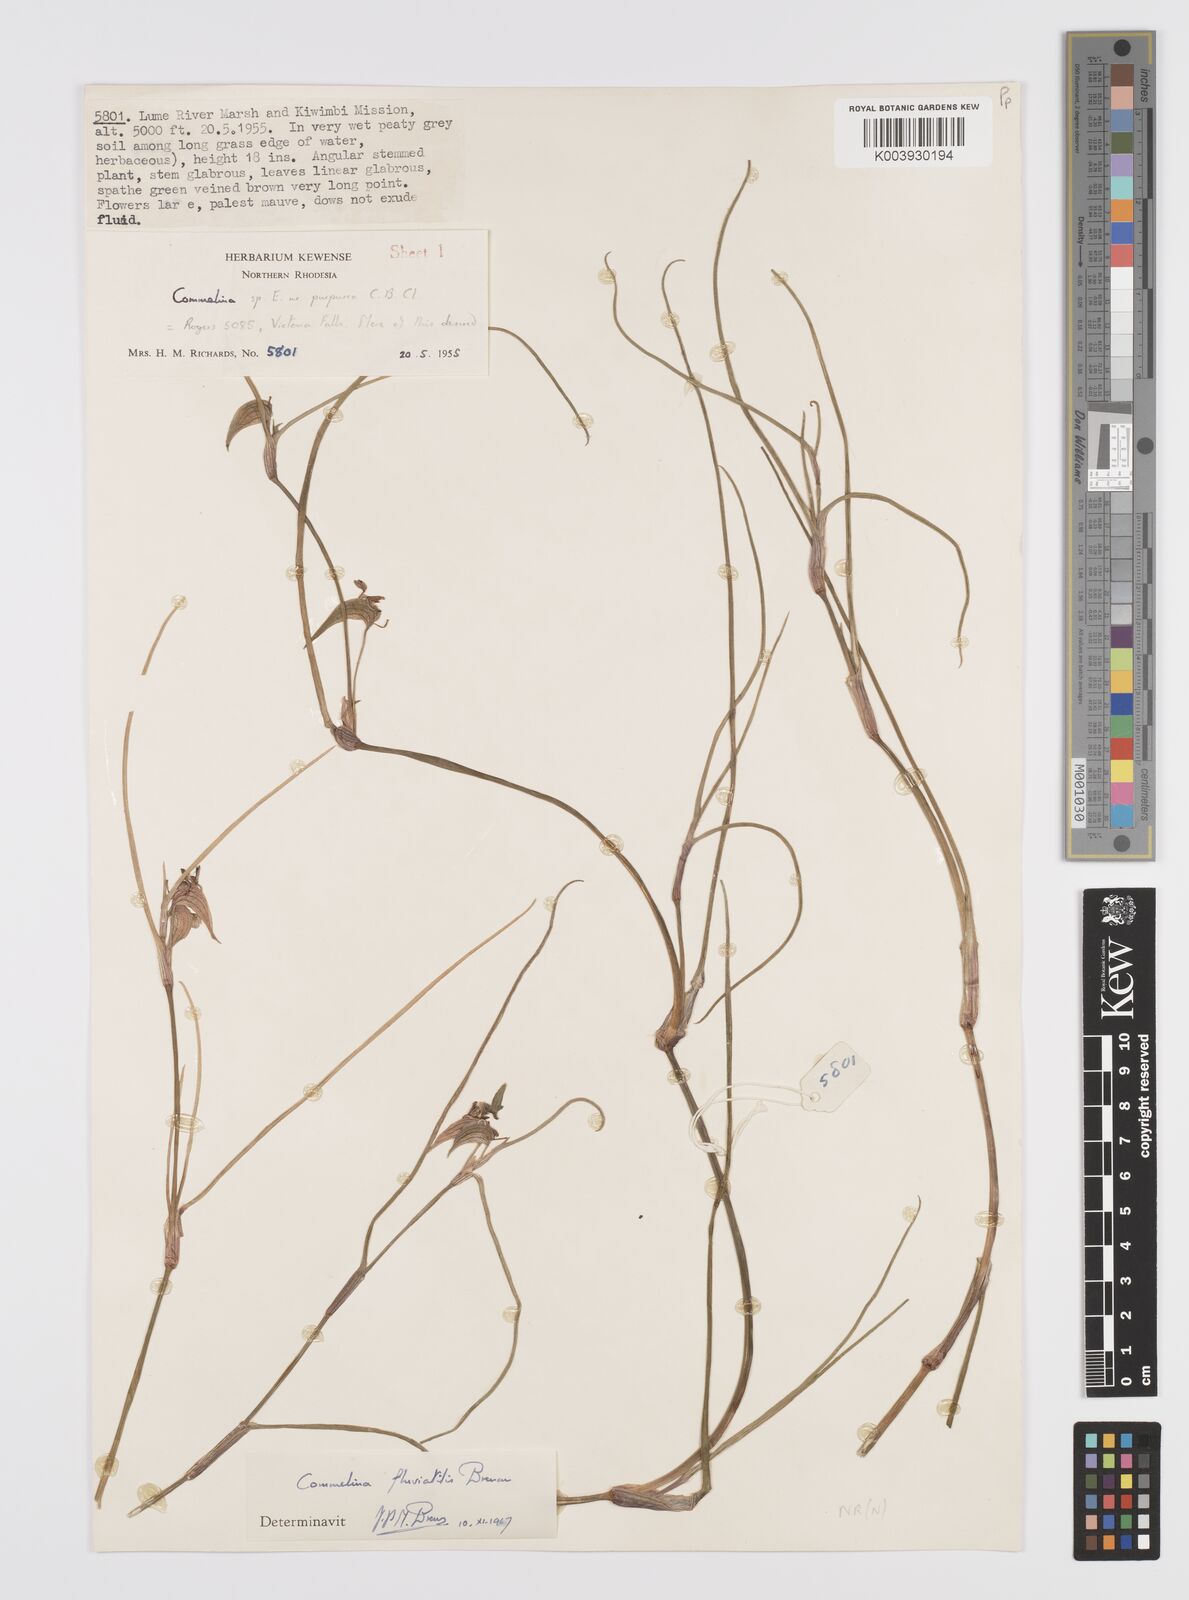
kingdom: Plantae
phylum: Tracheophyta
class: Liliopsida
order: Commelinales
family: Commelinaceae
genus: Commelina
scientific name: Commelina fluviatilis
